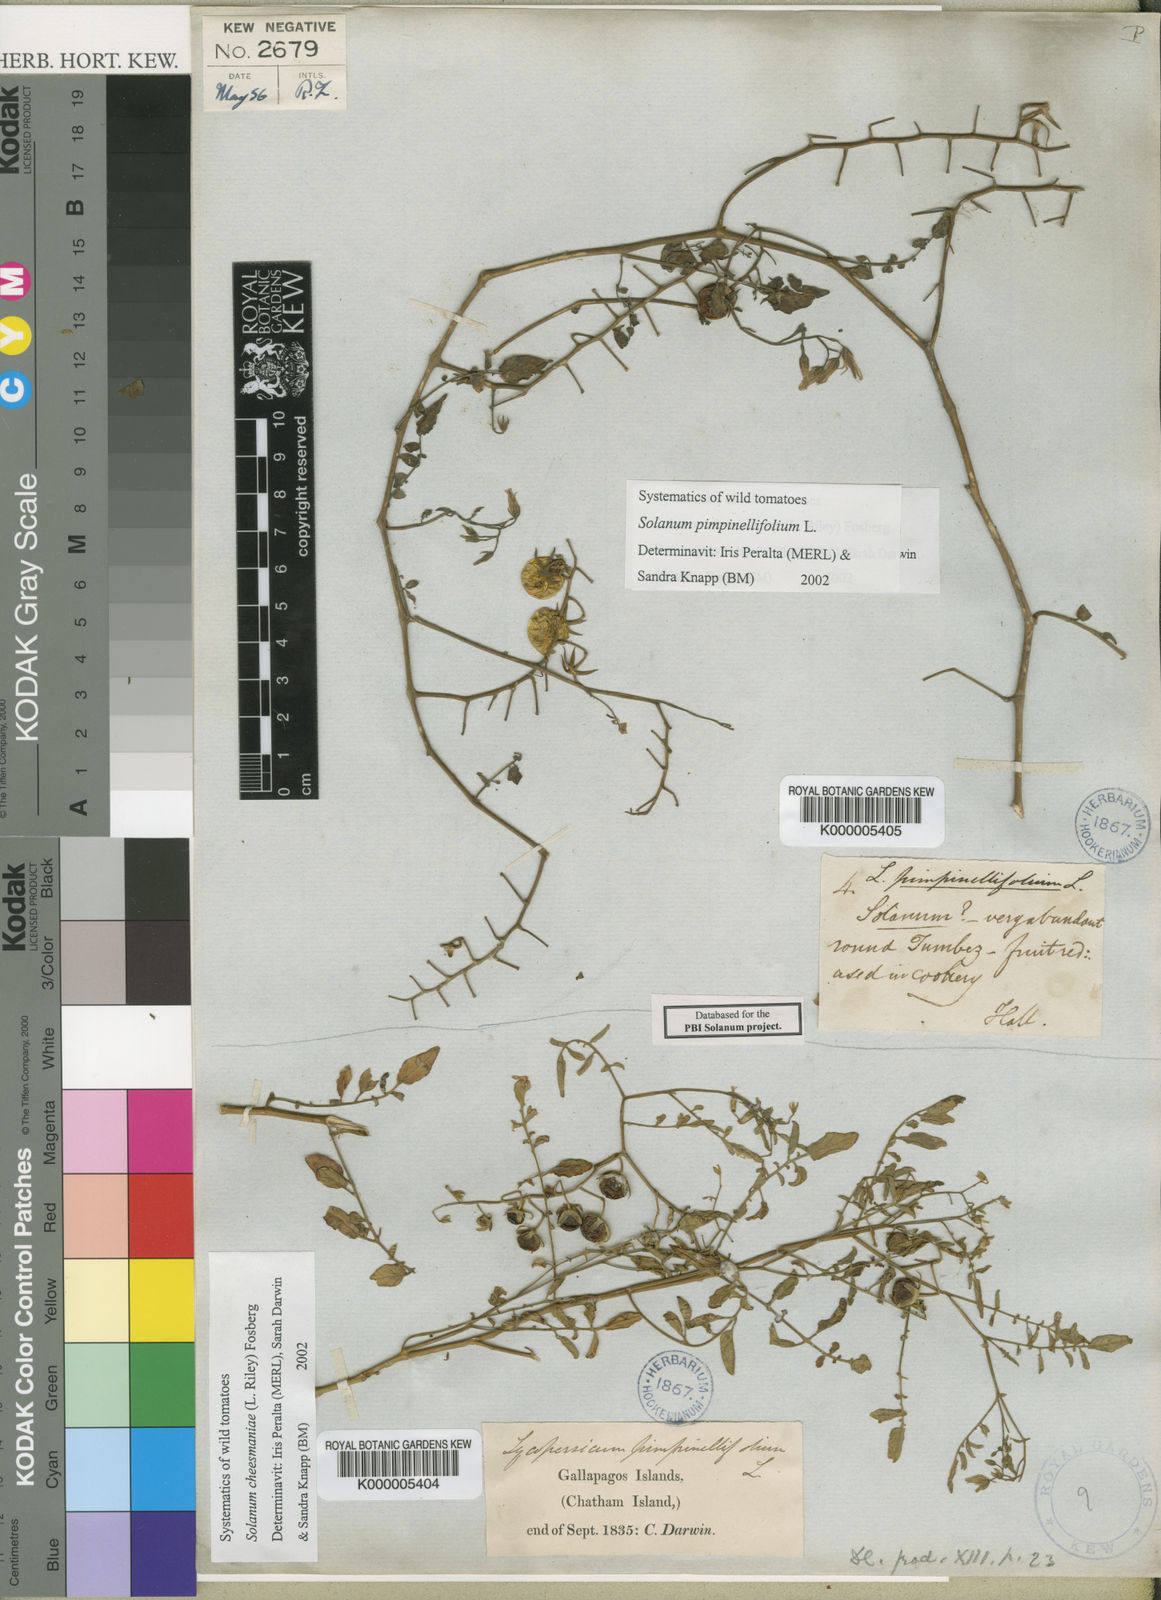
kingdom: Plantae
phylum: Tracheophyta
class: Magnoliopsida
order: Solanales
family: Solanaceae
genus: Solanum
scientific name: Solanum cheesmaniae
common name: Galapagos tomato
